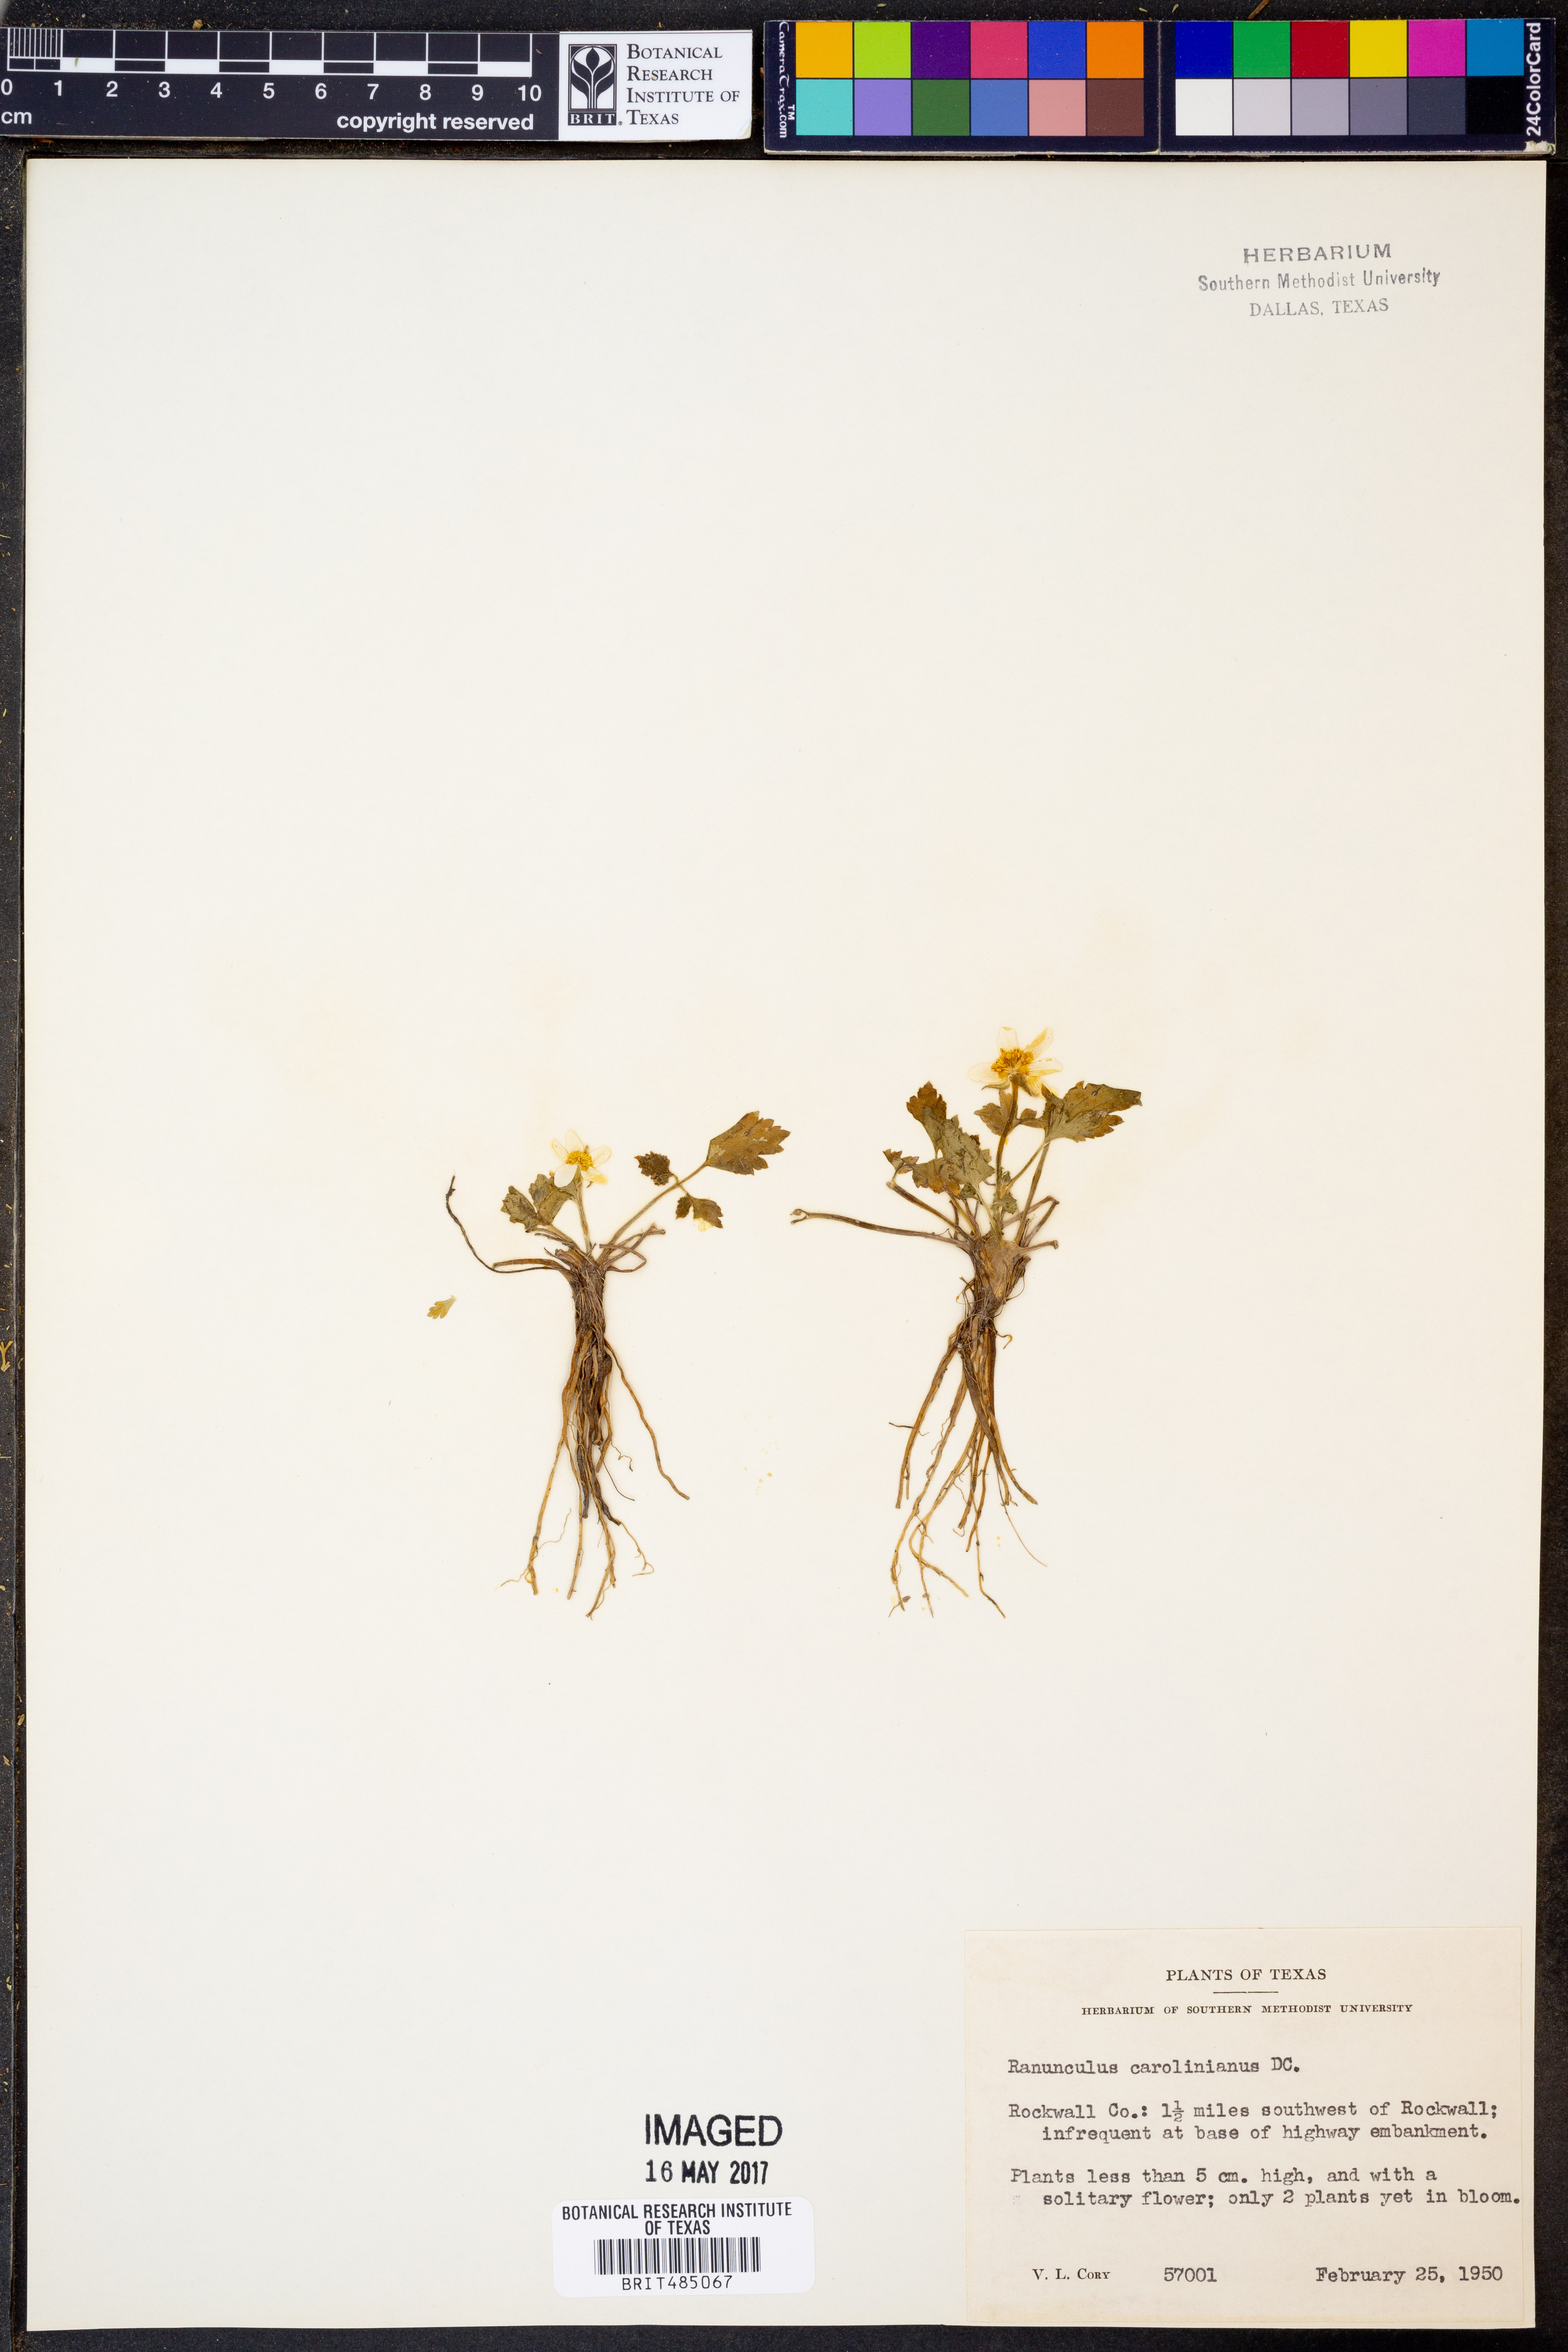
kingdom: Plantae
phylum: Tracheophyta
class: Magnoliopsida
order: Ranunculales
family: Ranunculaceae
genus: Ranunculus
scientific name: Ranunculus hispidus
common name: Bristly buttercup
